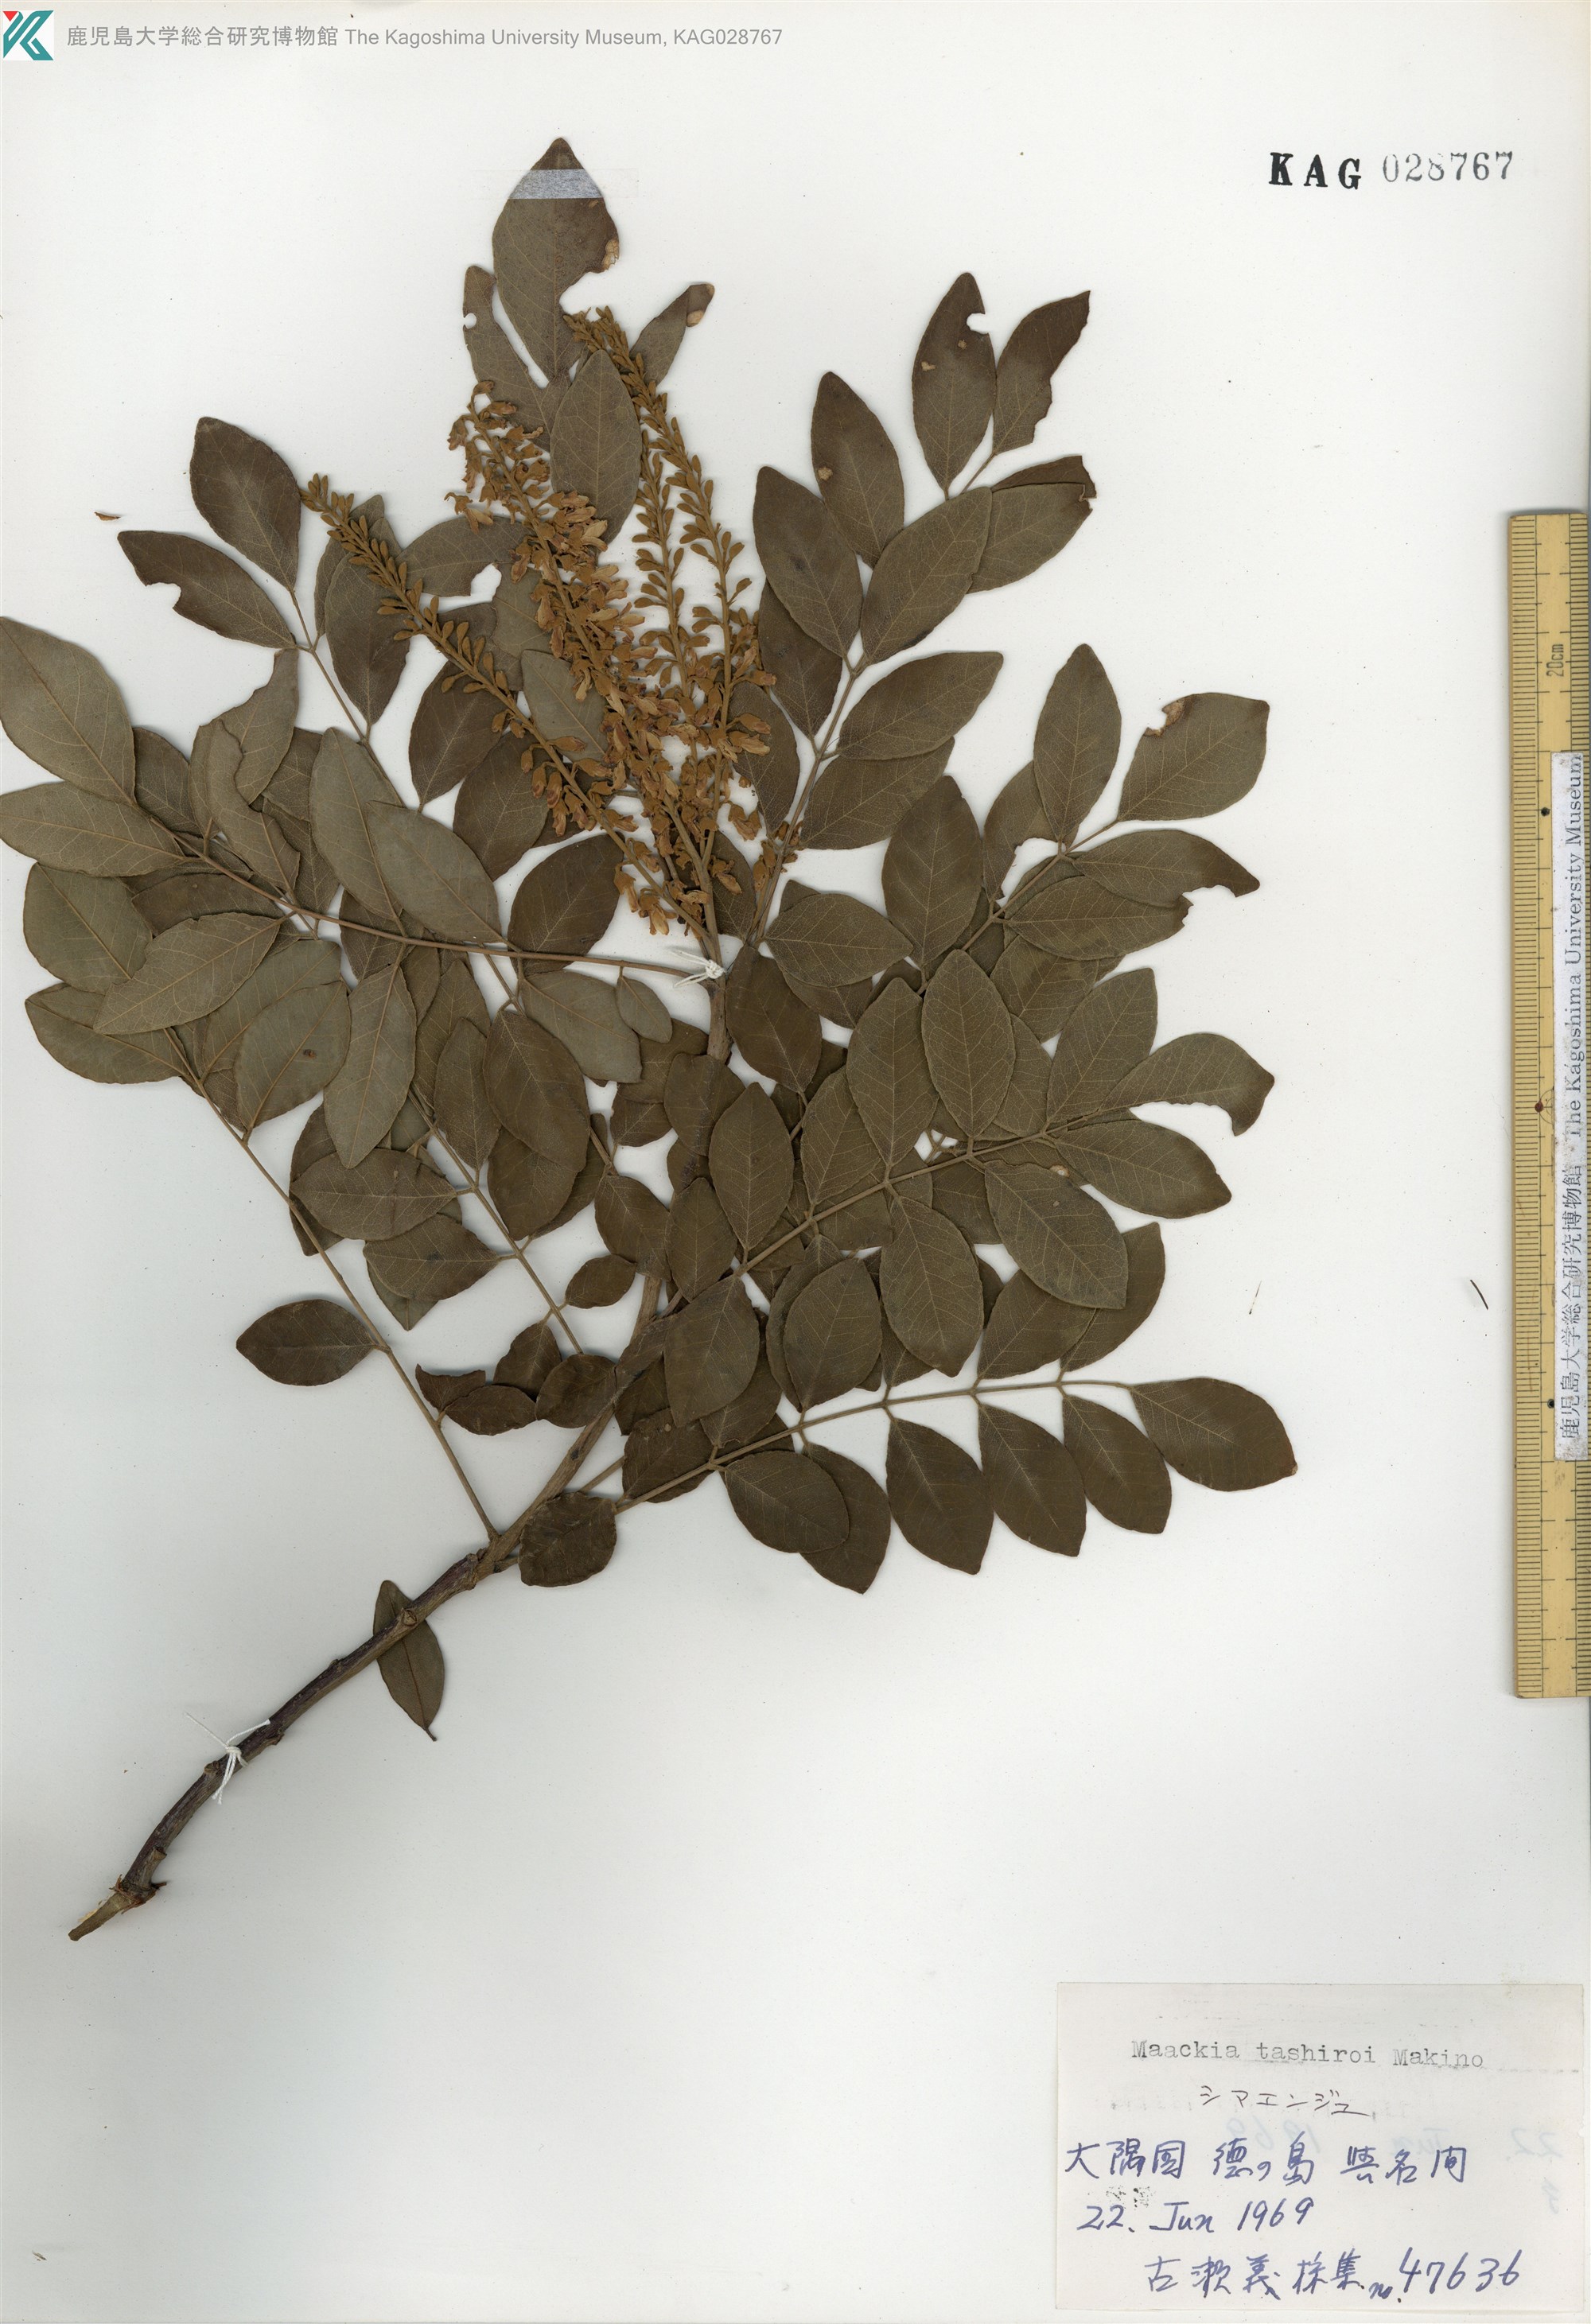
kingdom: Plantae
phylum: Tracheophyta
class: Magnoliopsida
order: Fabales
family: Fabaceae
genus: Maackia
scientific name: Maackia tashiroi
